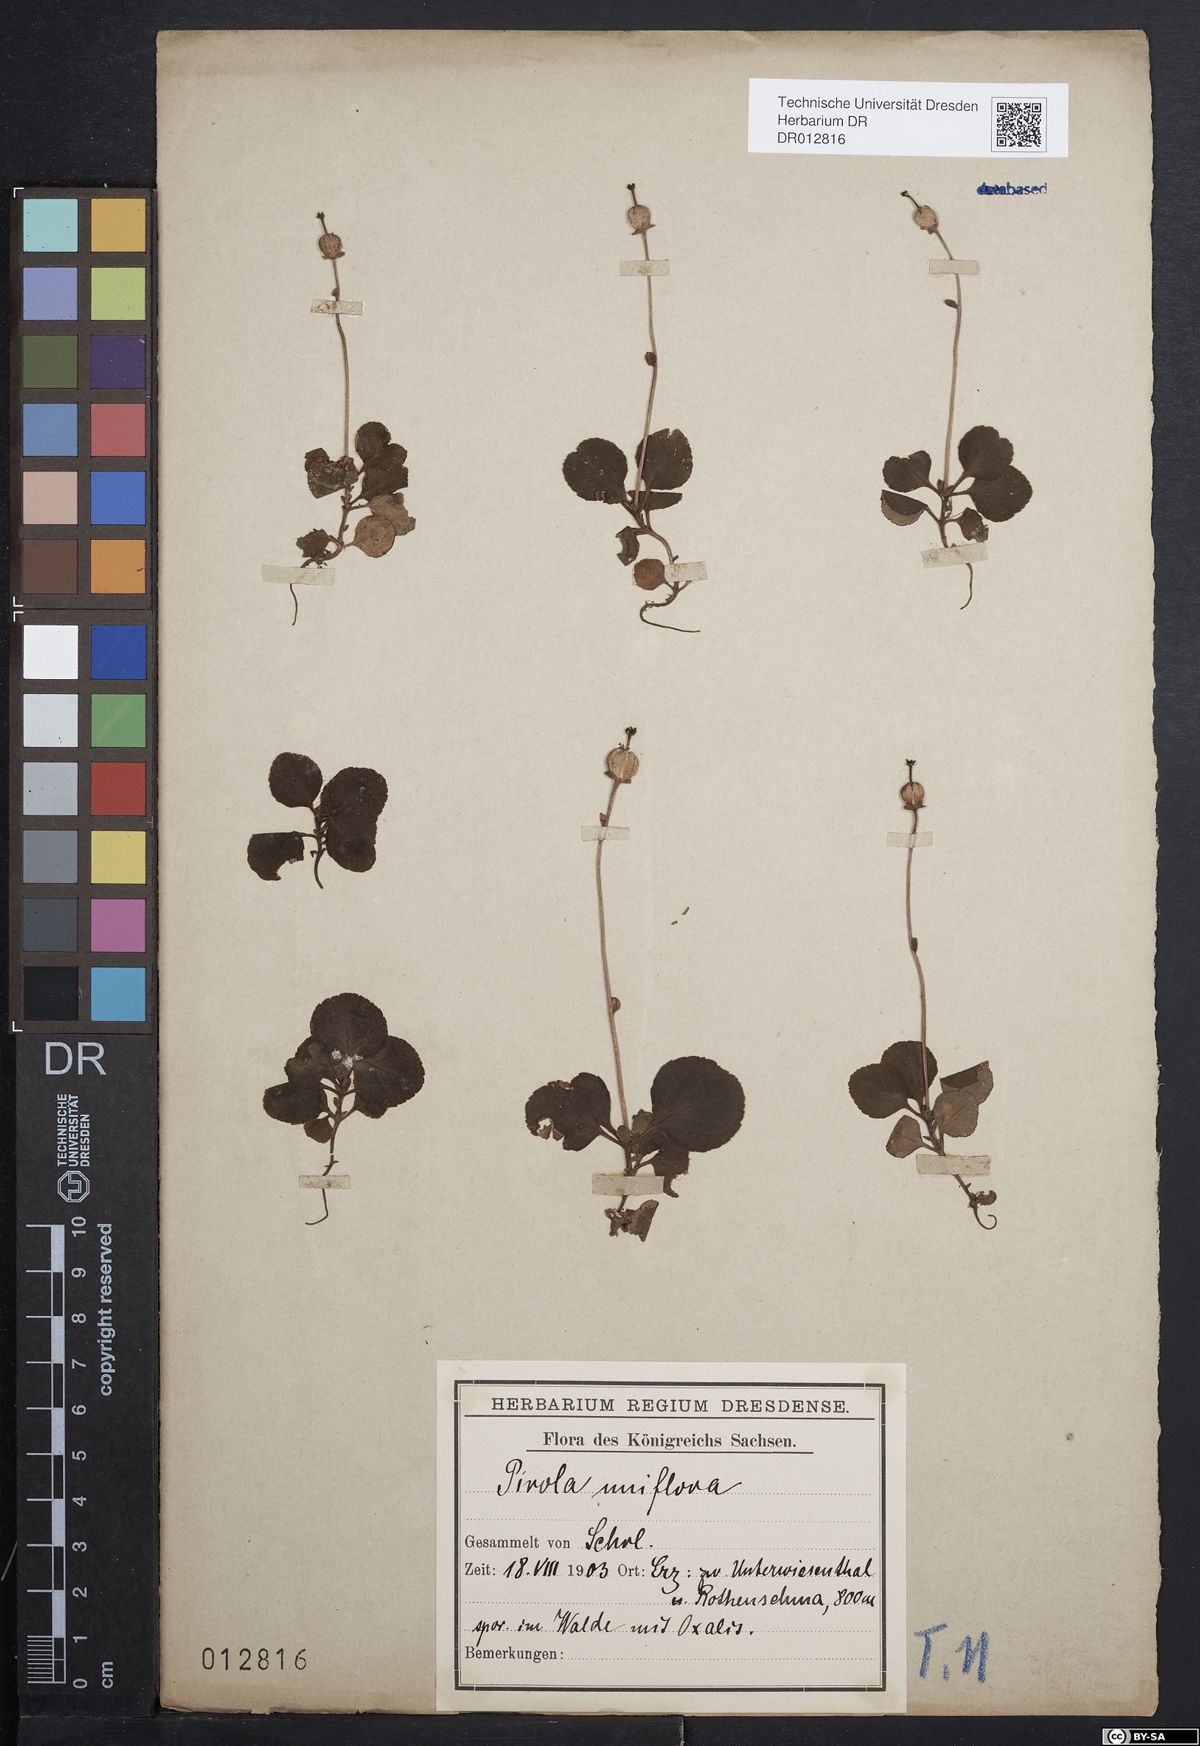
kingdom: Plantae
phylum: Tracheophyta
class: Magnoliopsida
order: Ericales
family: Ericaceae
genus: Moneses
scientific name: Moneses uniflora
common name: One-flowered wintergreen
